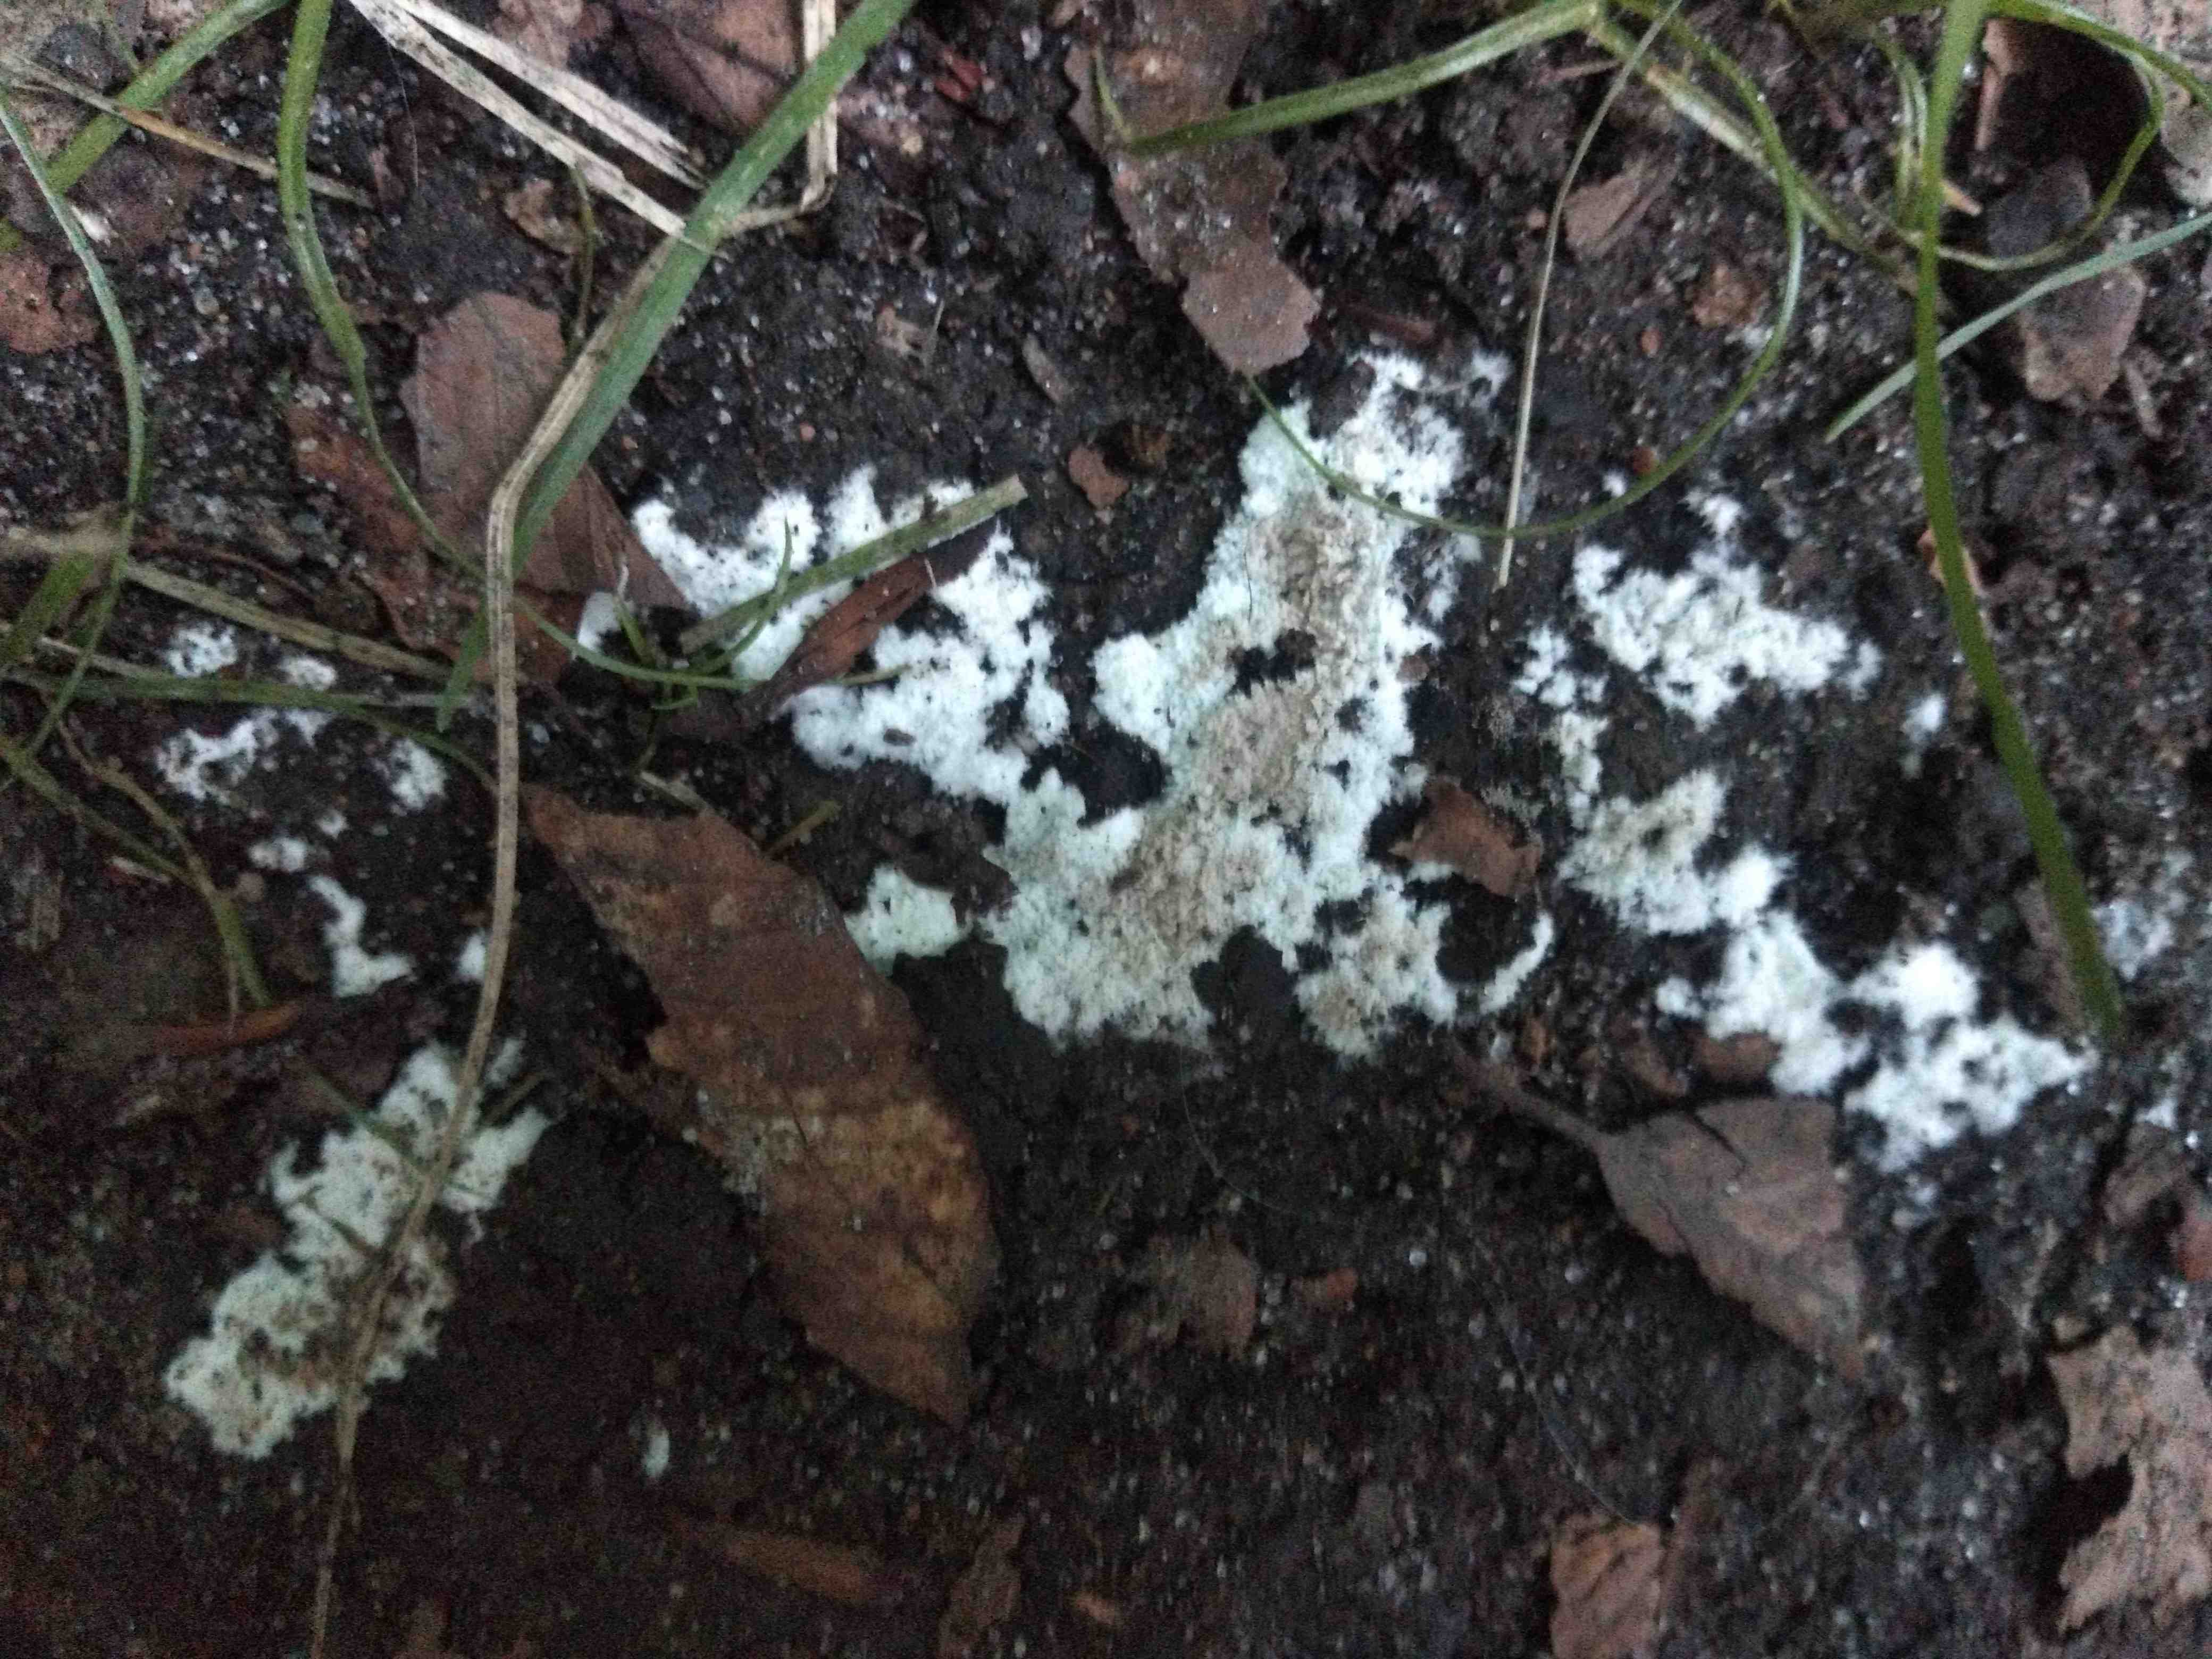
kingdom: Fungi
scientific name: Fungi
